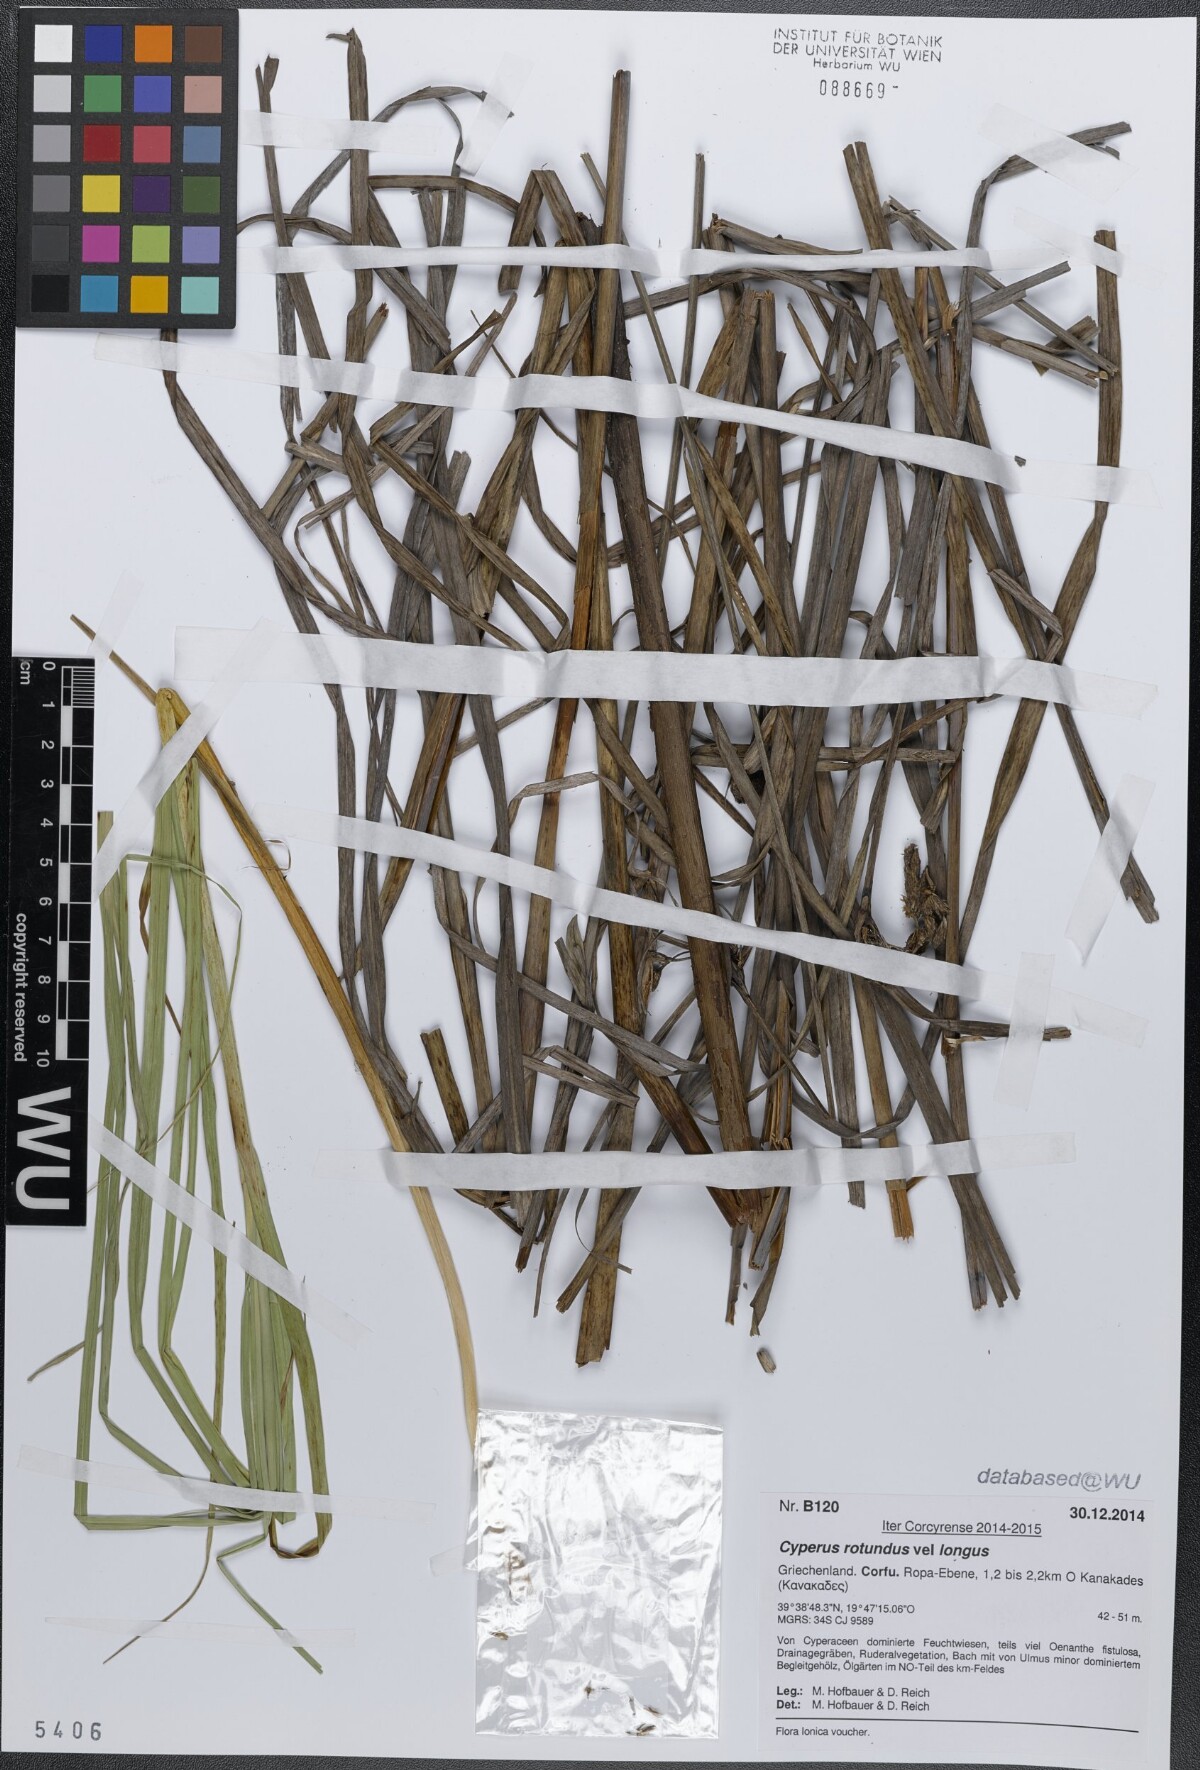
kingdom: Plantae
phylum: Tracheophyta
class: Liliopsida
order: Poales
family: Cyperaceae
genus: Cyperus
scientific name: Cyperus
